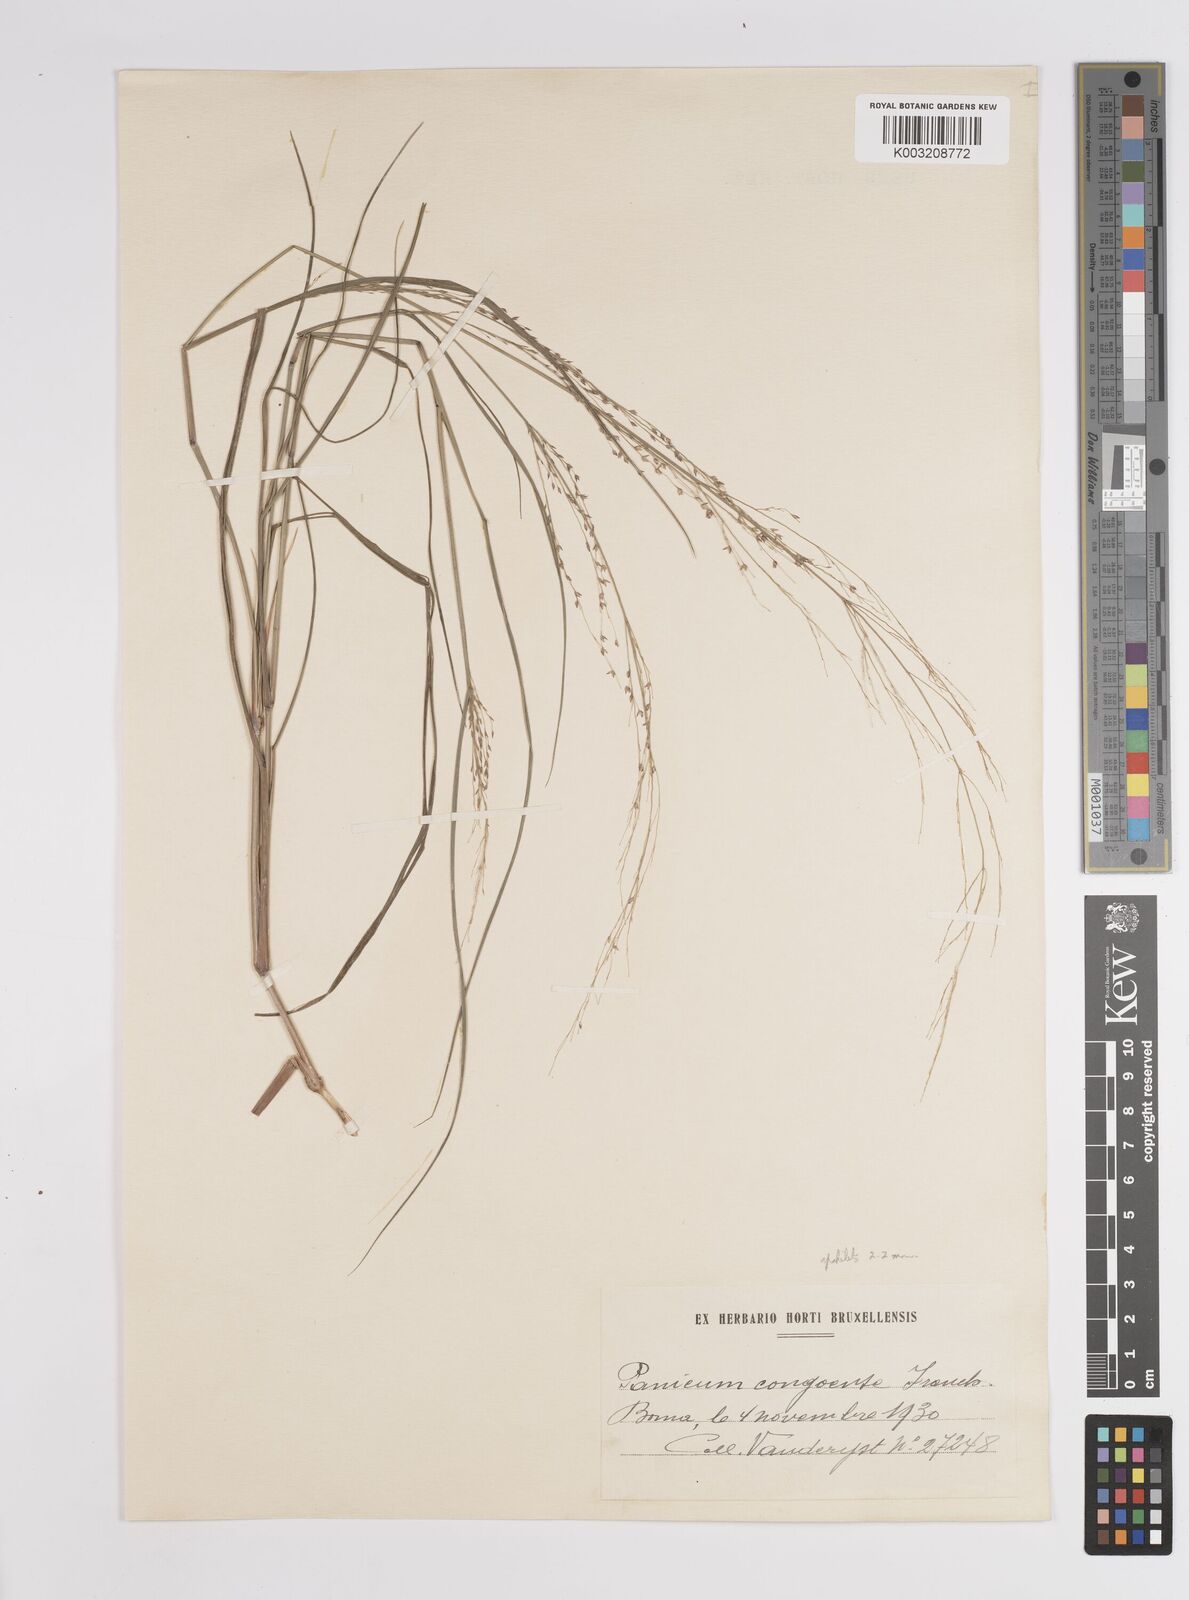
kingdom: Plantae
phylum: Tracheophyta
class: Liliopsida
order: Poales
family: Poaceae
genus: Panicum
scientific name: Panicum genuflexum
